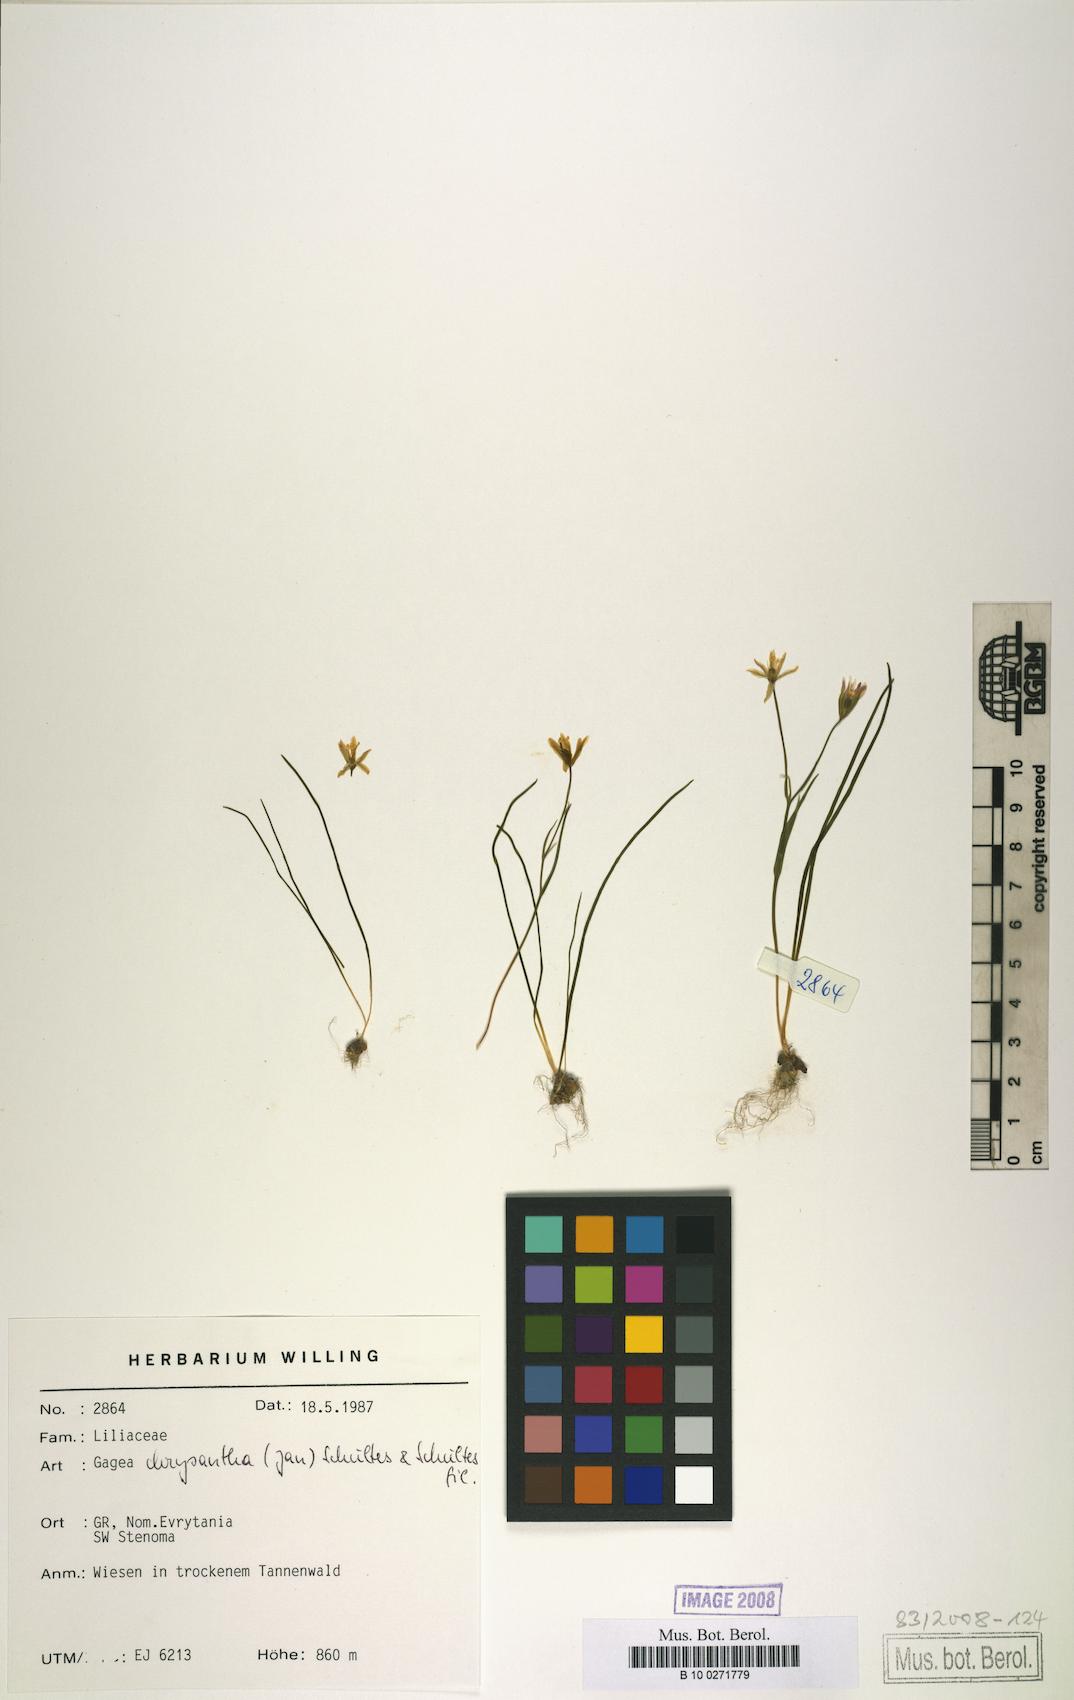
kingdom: Plantae
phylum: Tracheophyta
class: Liliopsida
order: Liliales
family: Liliaceae
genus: Gagea
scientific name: Gagea chrysantha
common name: Golden gagea
